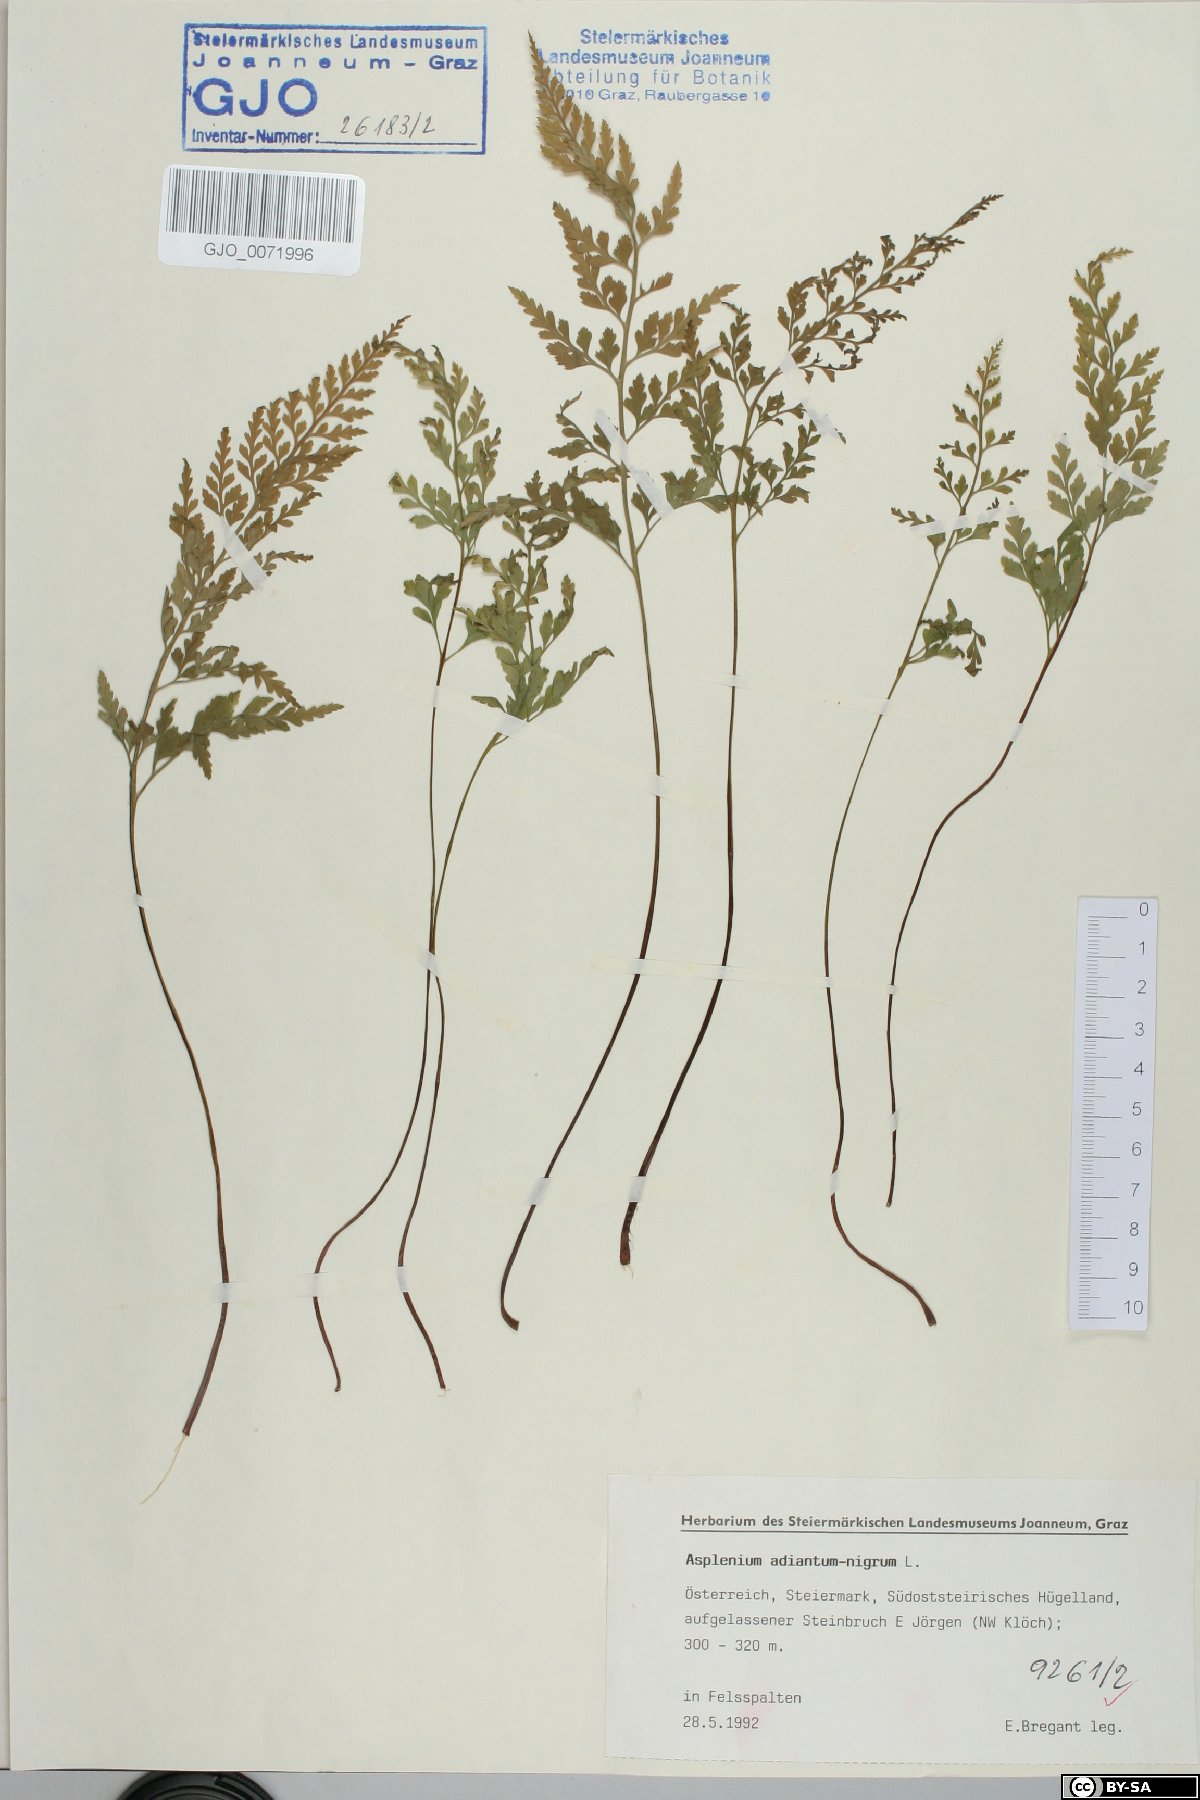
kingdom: Plantae
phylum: Tracheophyta
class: Polypodiopsida
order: Polypodiales
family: Aspleniaceae
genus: Asplenium
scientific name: Asplenium adiantum-nigrum
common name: Black spleenwort
